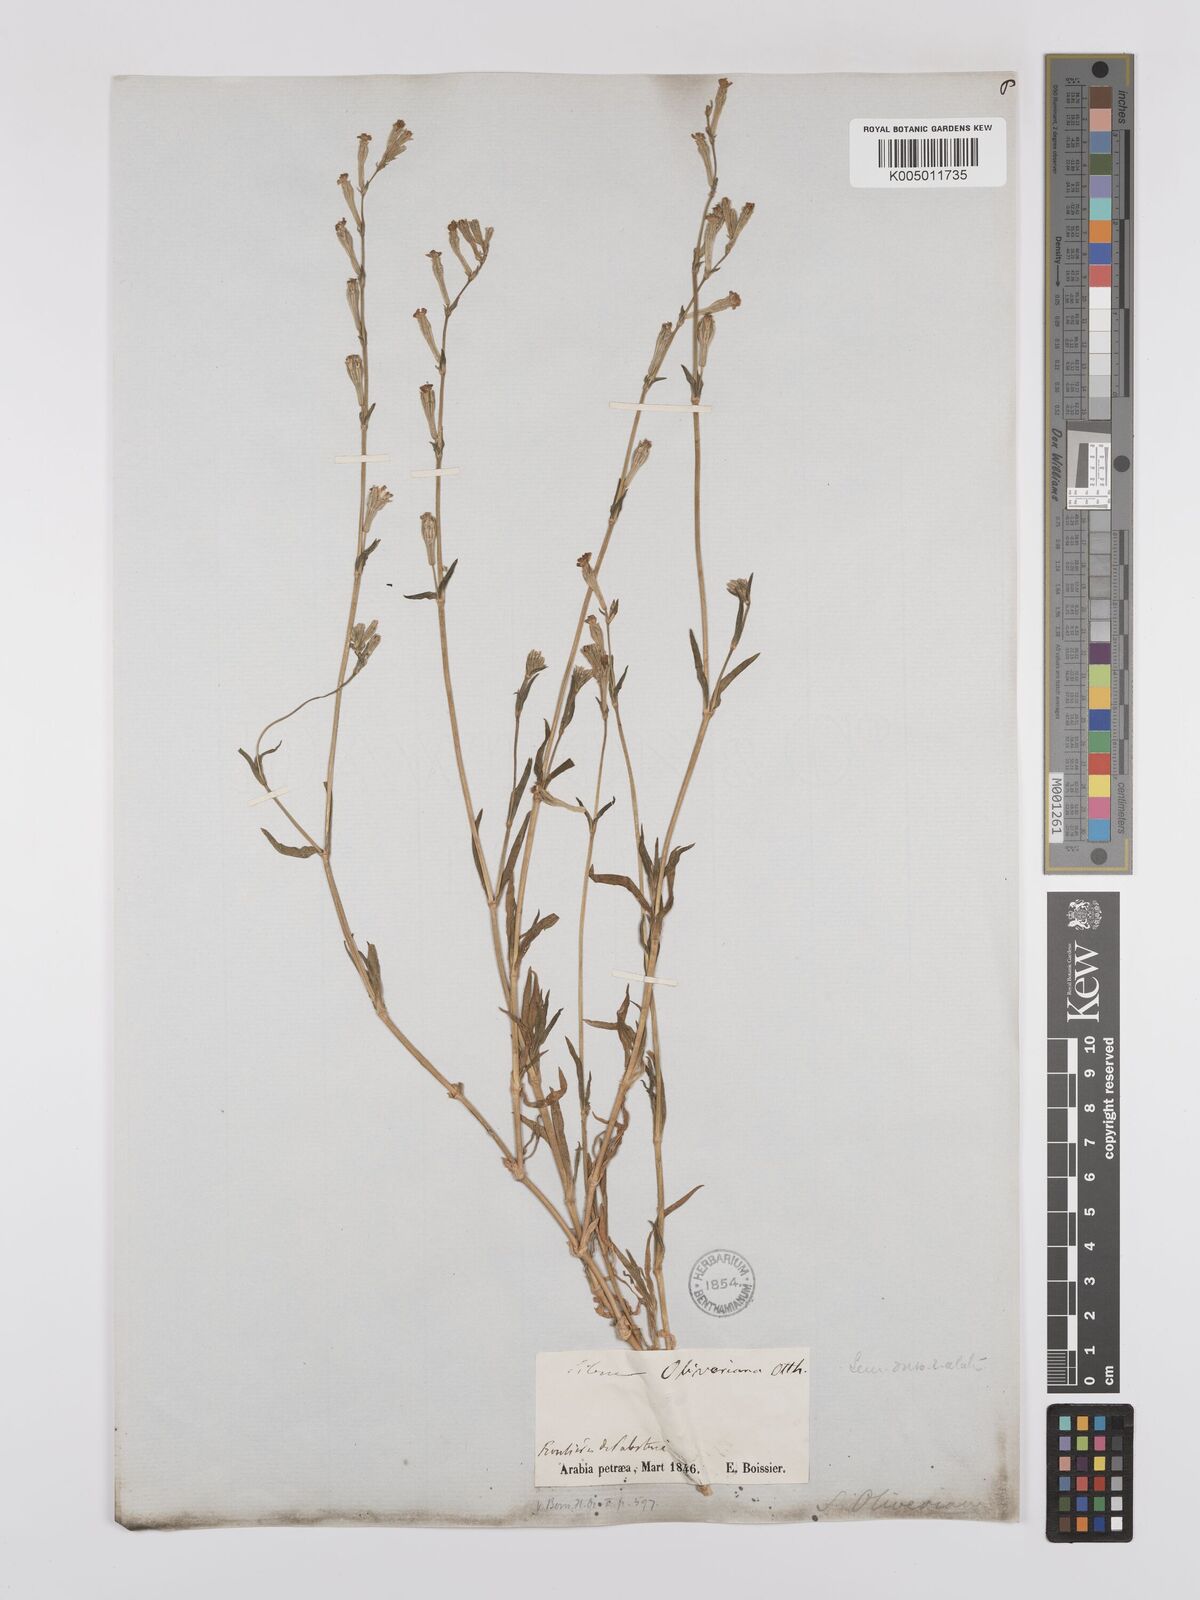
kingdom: Plantae
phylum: Tracheophyta
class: Magnoliopsida
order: Caryophyllales
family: Caryophyllaceae
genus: Silene
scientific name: Silene oliveriana
